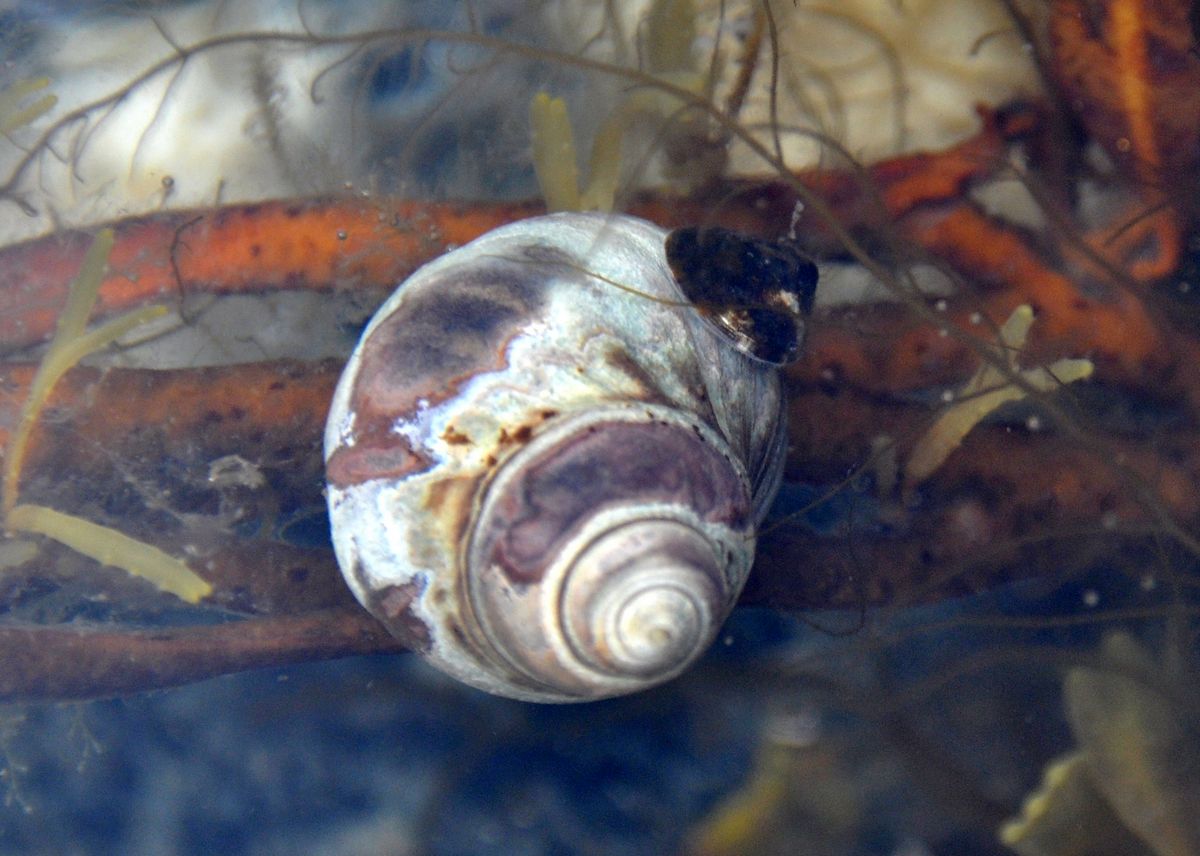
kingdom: Animalia
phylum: Mollusca
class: Gastropoda
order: Littorinimorpha
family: Littorinidae
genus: Littorina
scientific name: Littorina littorea
